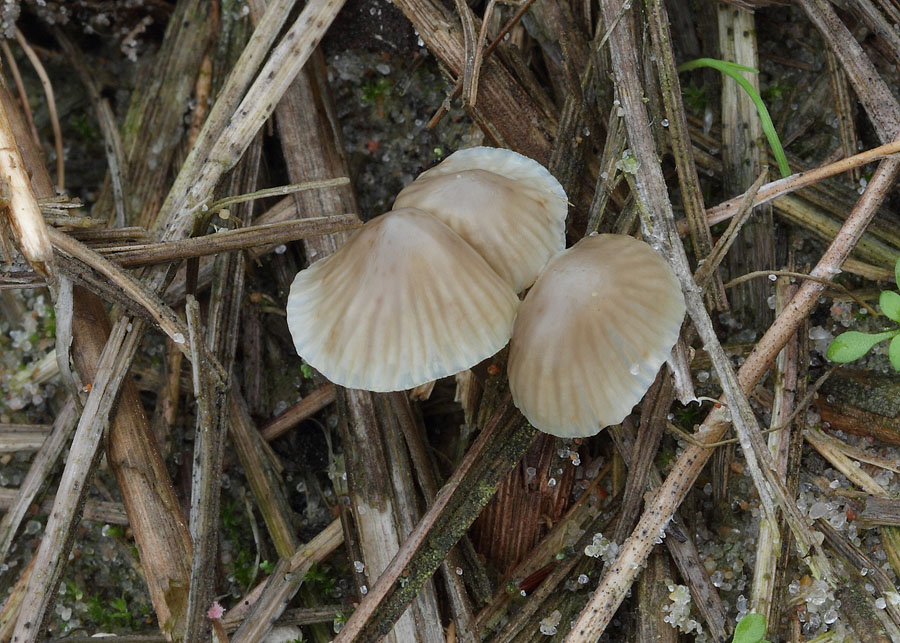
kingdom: Fungi
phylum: Basidiomycota
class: Agaricomycetes
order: Agaricales
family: Mycenaceae
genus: Mycena
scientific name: Mycena chlorantha
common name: klit-huesvamp
